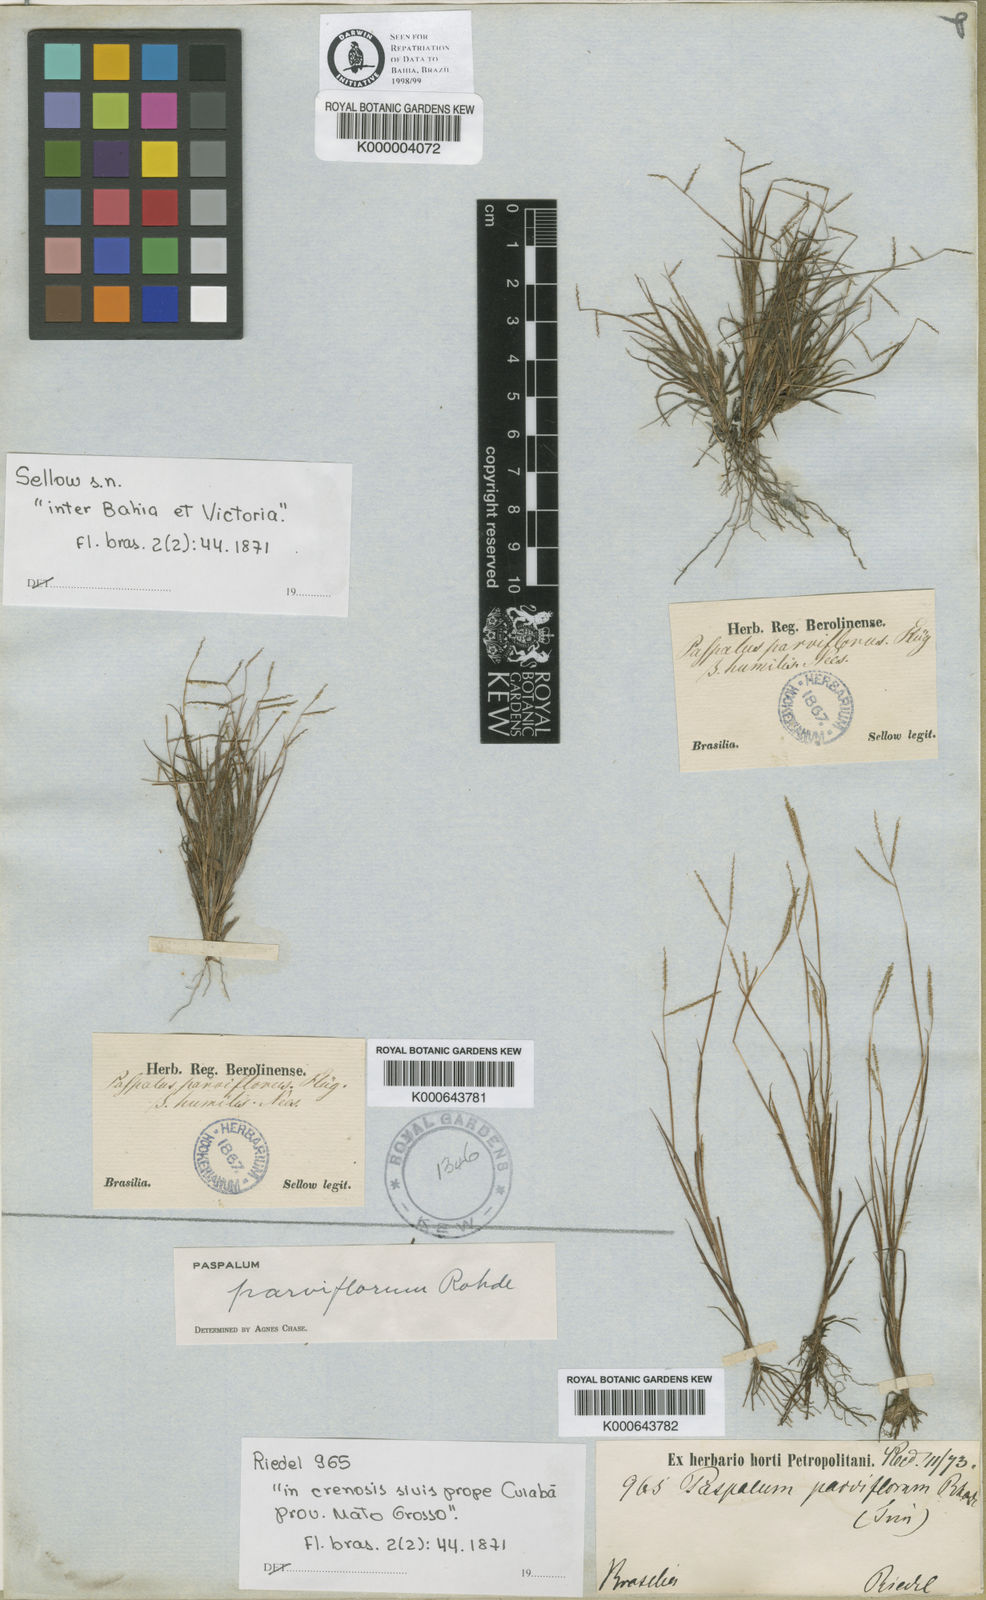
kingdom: Plantae
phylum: Tracheophyta
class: Liliopsida
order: Poales
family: Poaceae
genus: Paspalum
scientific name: Paspalum
